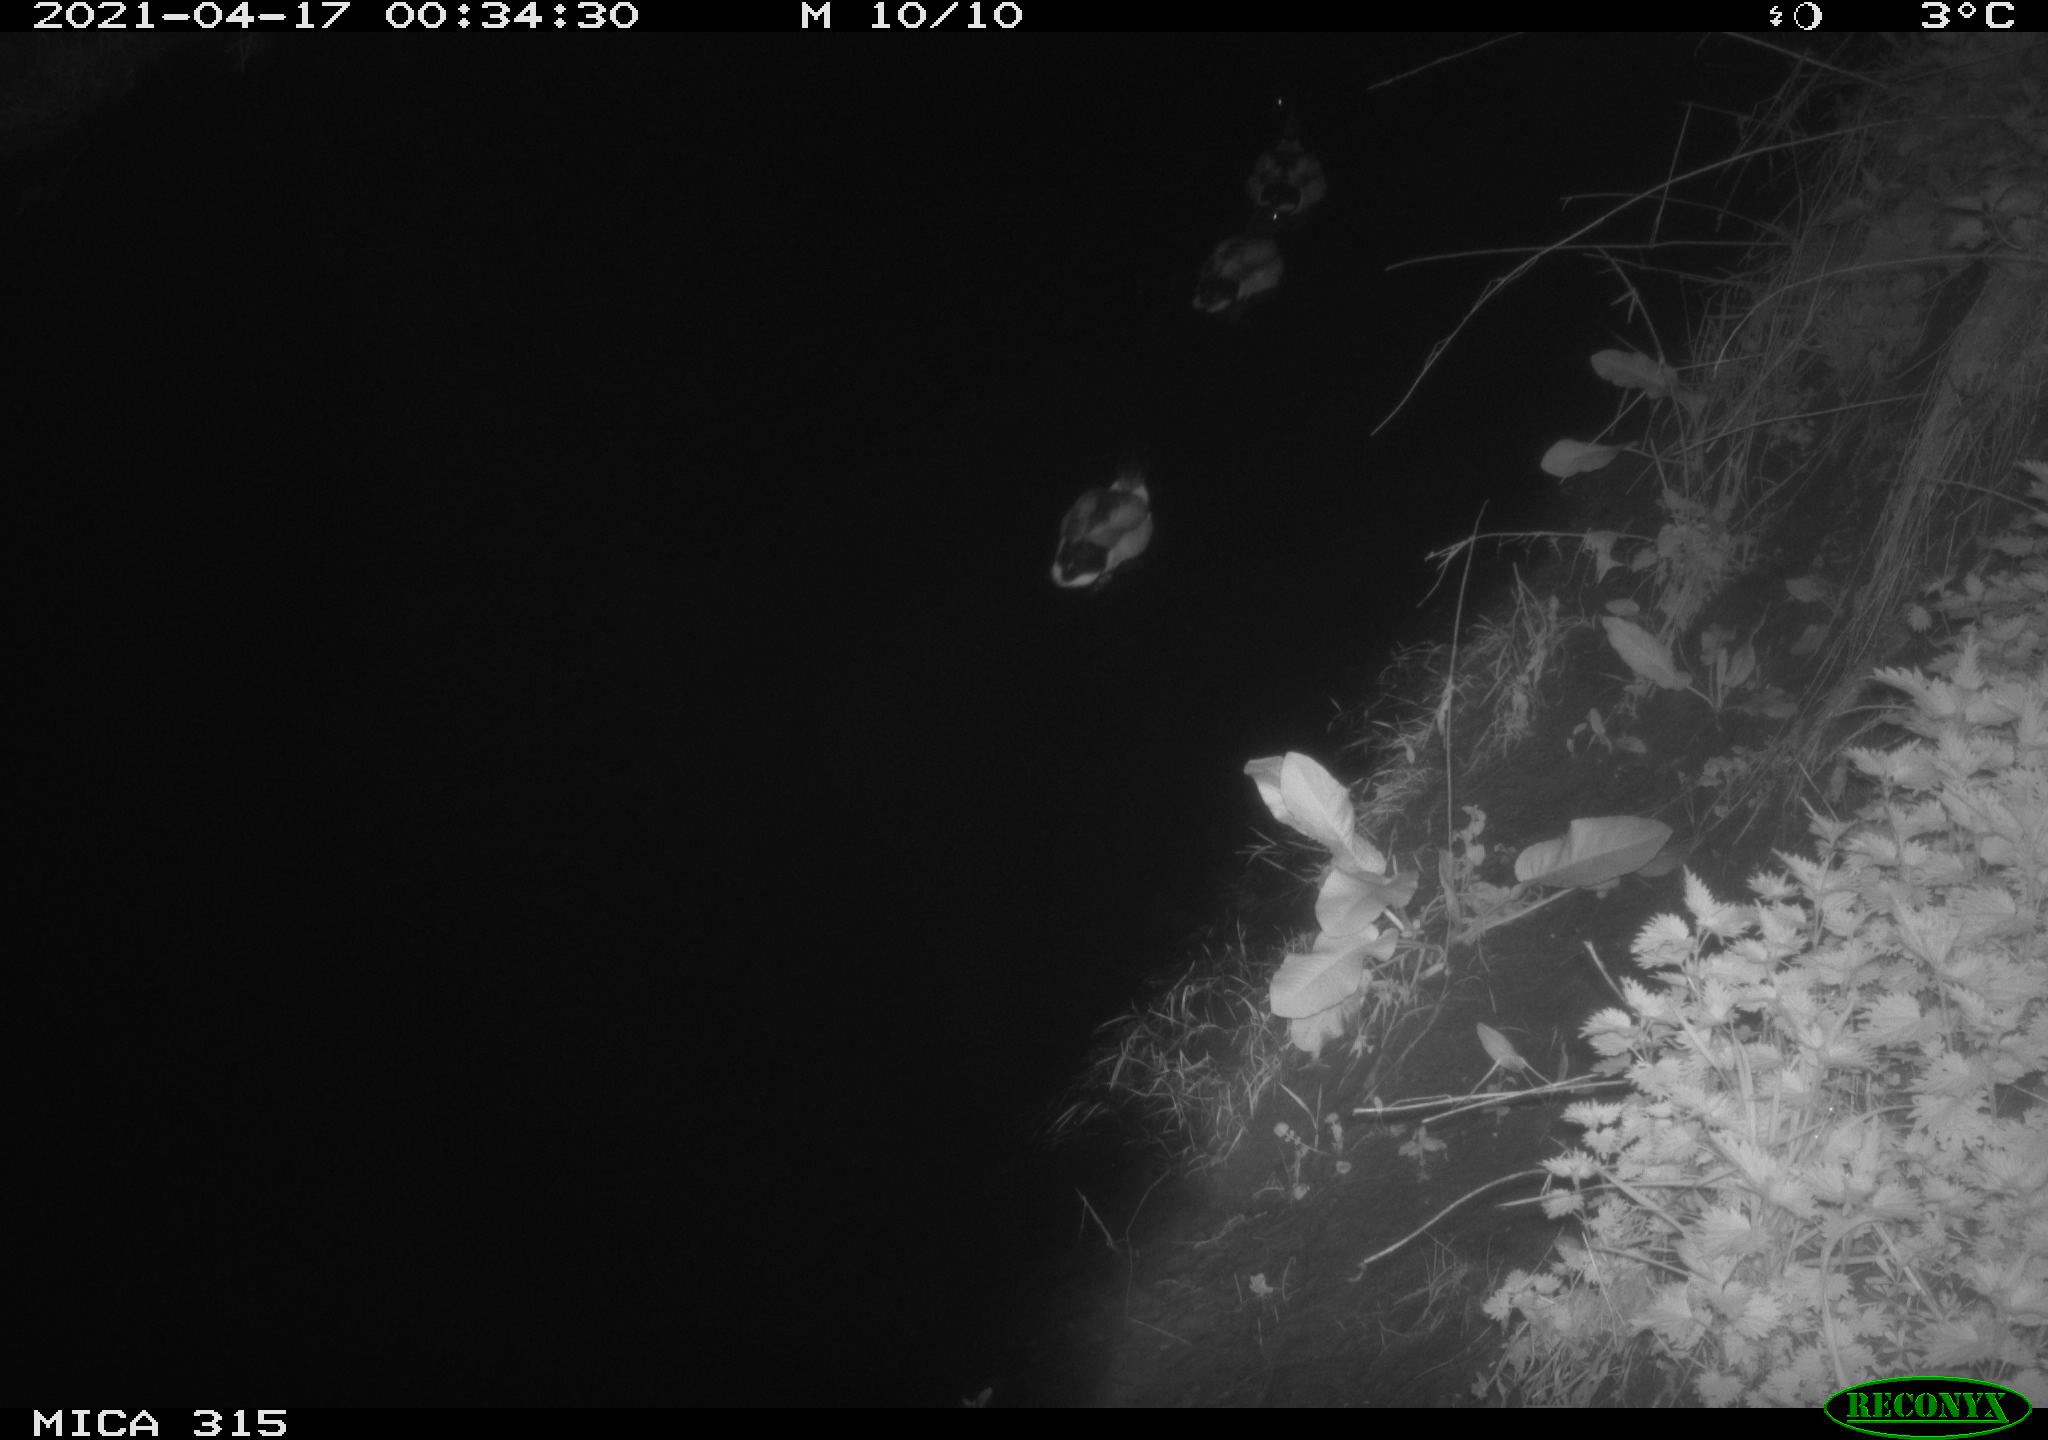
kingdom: Animalia
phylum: Chordata
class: Aves
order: Anseriformes
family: Anatidae
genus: Anas
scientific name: Anas platyrhynchos
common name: Mallard
